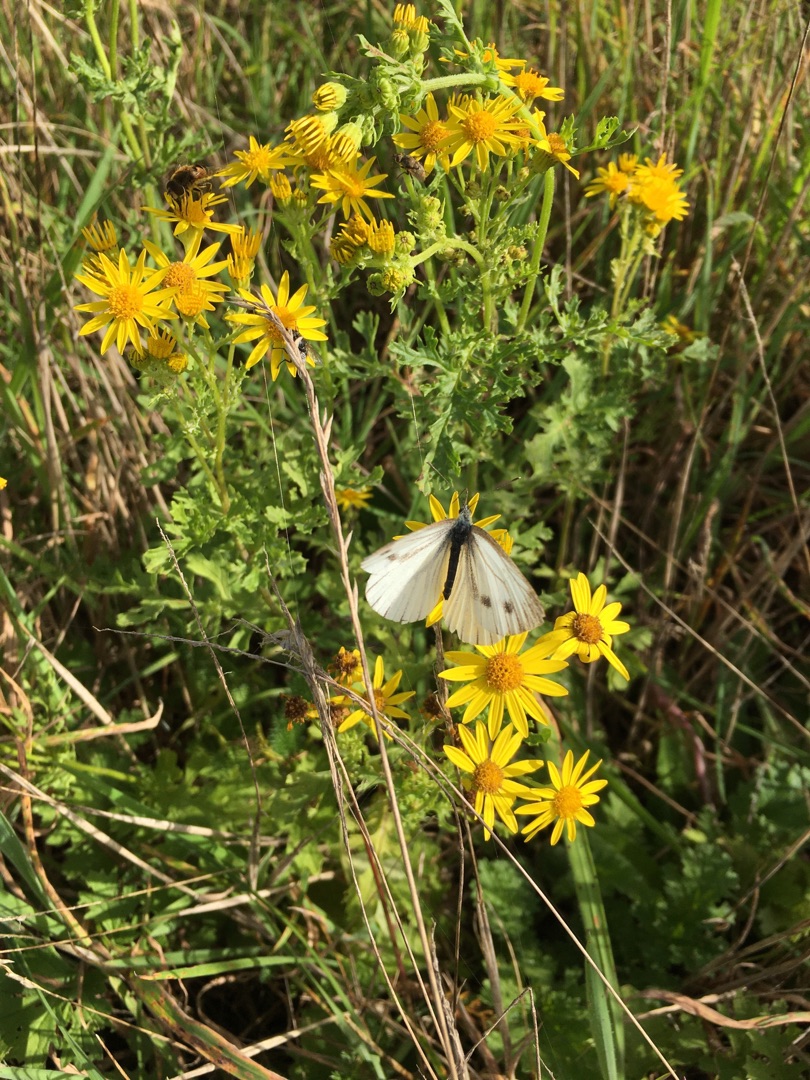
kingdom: Animalia
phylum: Arthropoda
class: Insecta
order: Lepidoptera
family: Pieridae
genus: Pieris
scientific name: Pieris napi
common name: Grønåret kålsommerfugl
